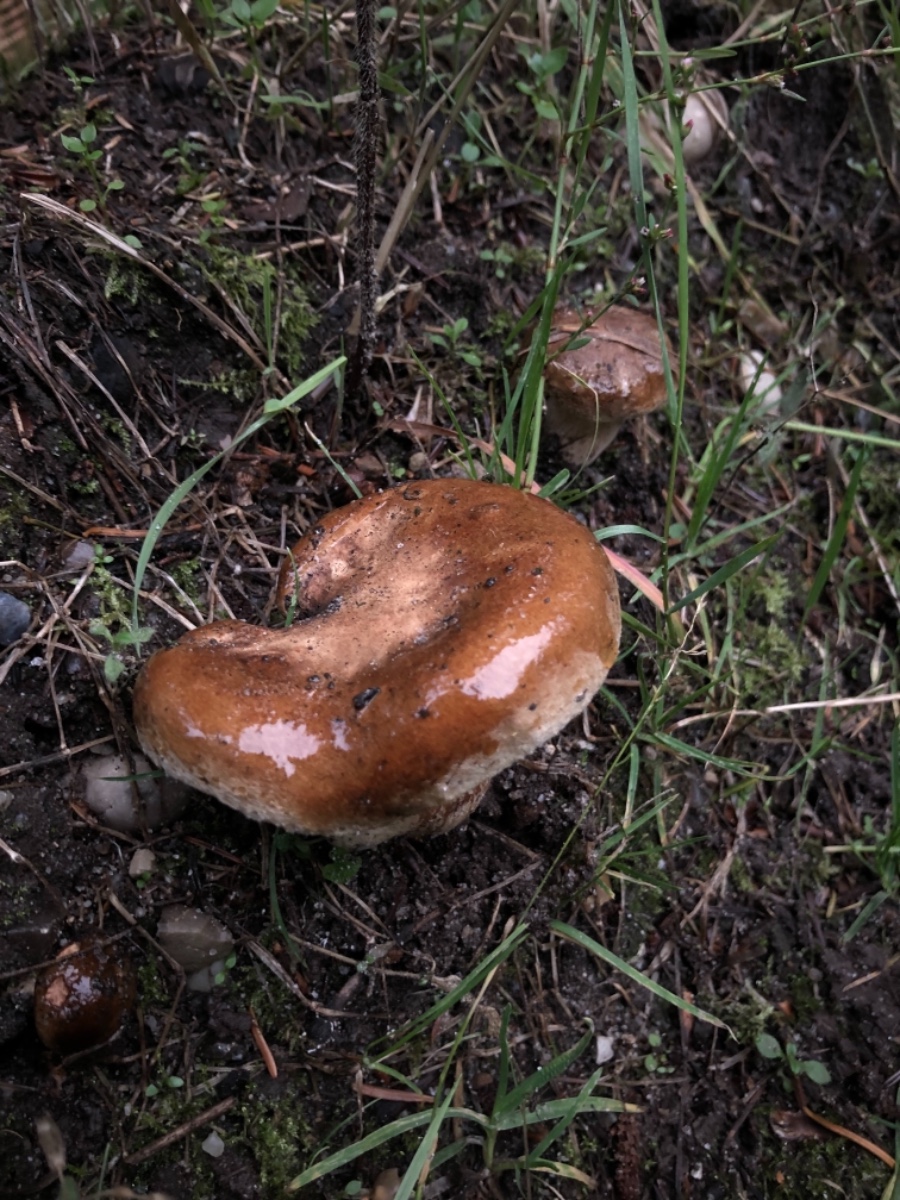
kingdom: Fungi
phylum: Basidiomycota
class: Agaricomycetes
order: Boletales
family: Paxillaceae
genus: Paxillus
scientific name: Paxillus involutus
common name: almindelig netbladhat
